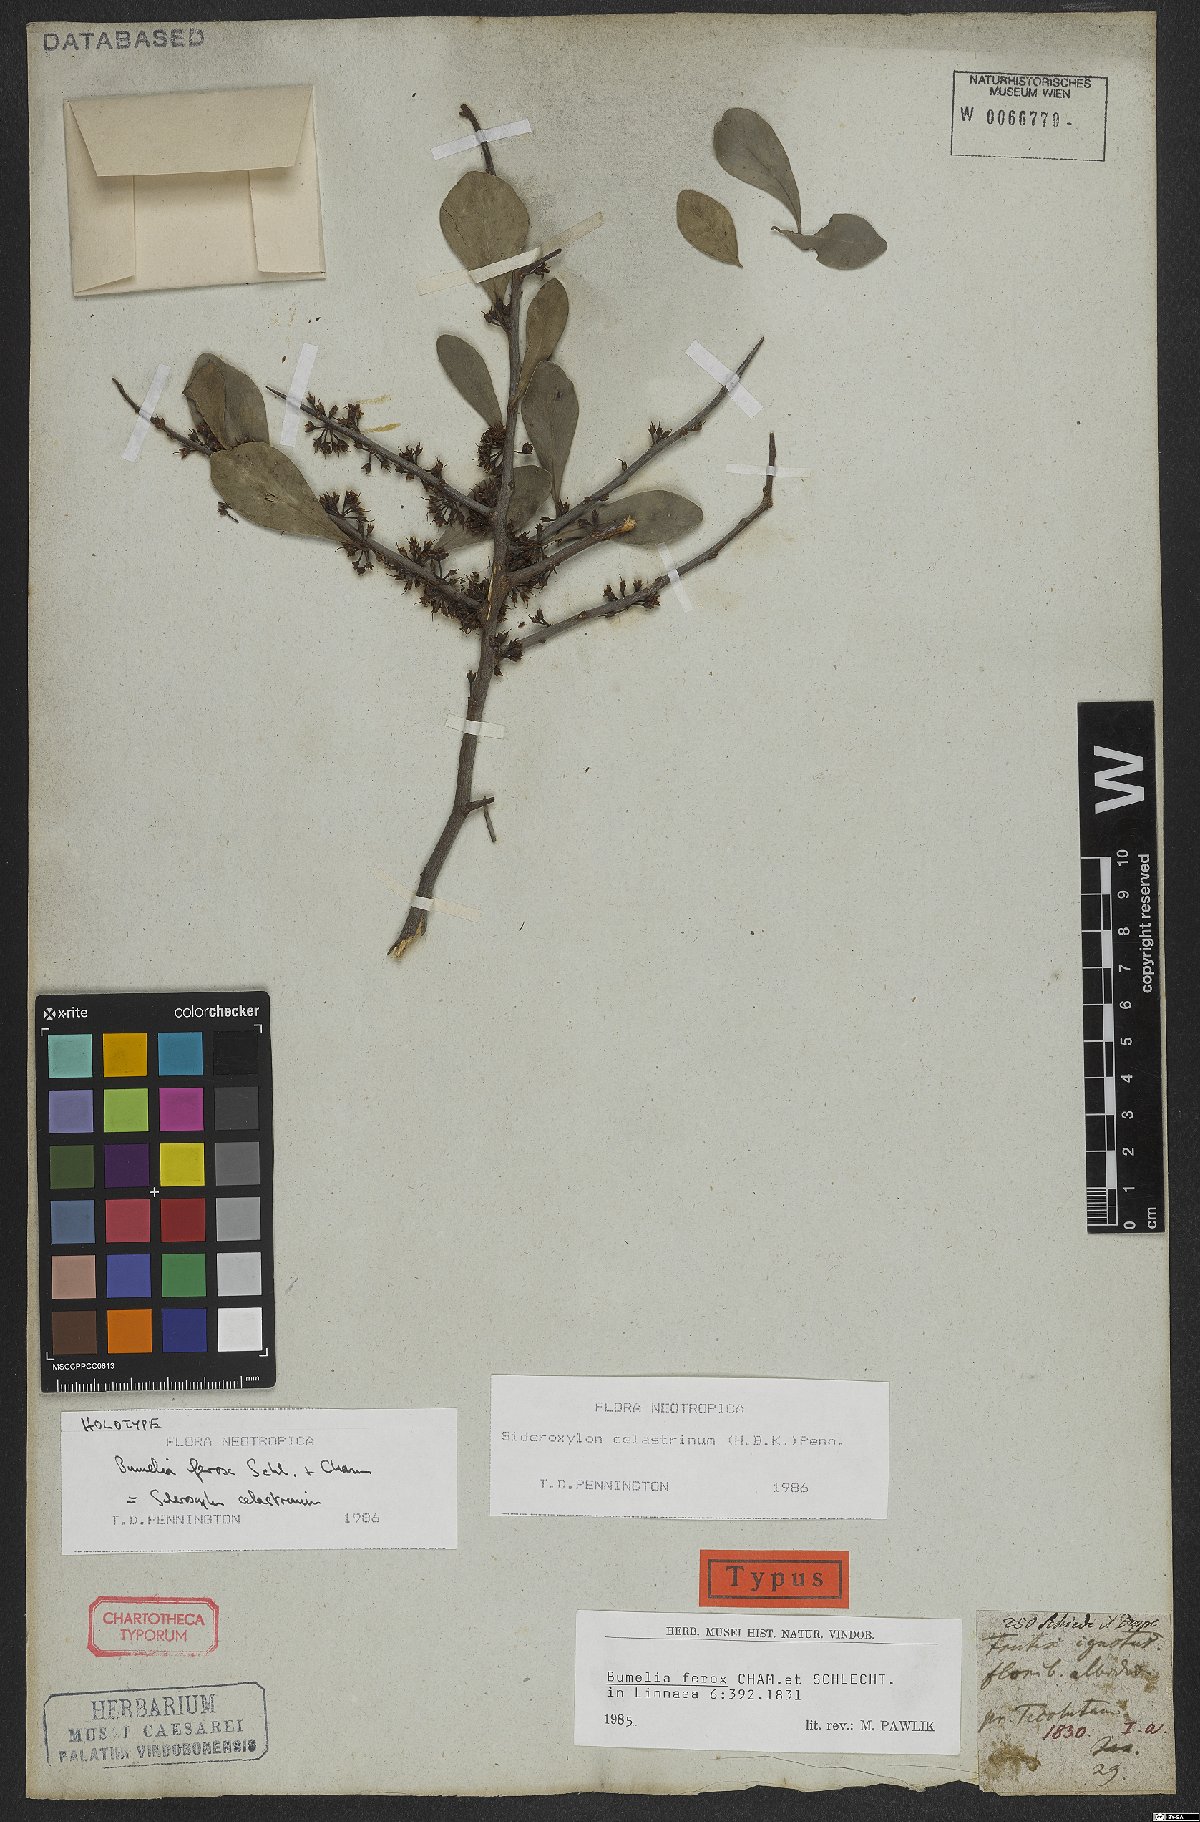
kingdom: Plantae
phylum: Tracheophyta
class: Magnoliopsida
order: Ericales
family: Sapotaceae
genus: Sideroxylon
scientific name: Sideroxylon celastrinum
